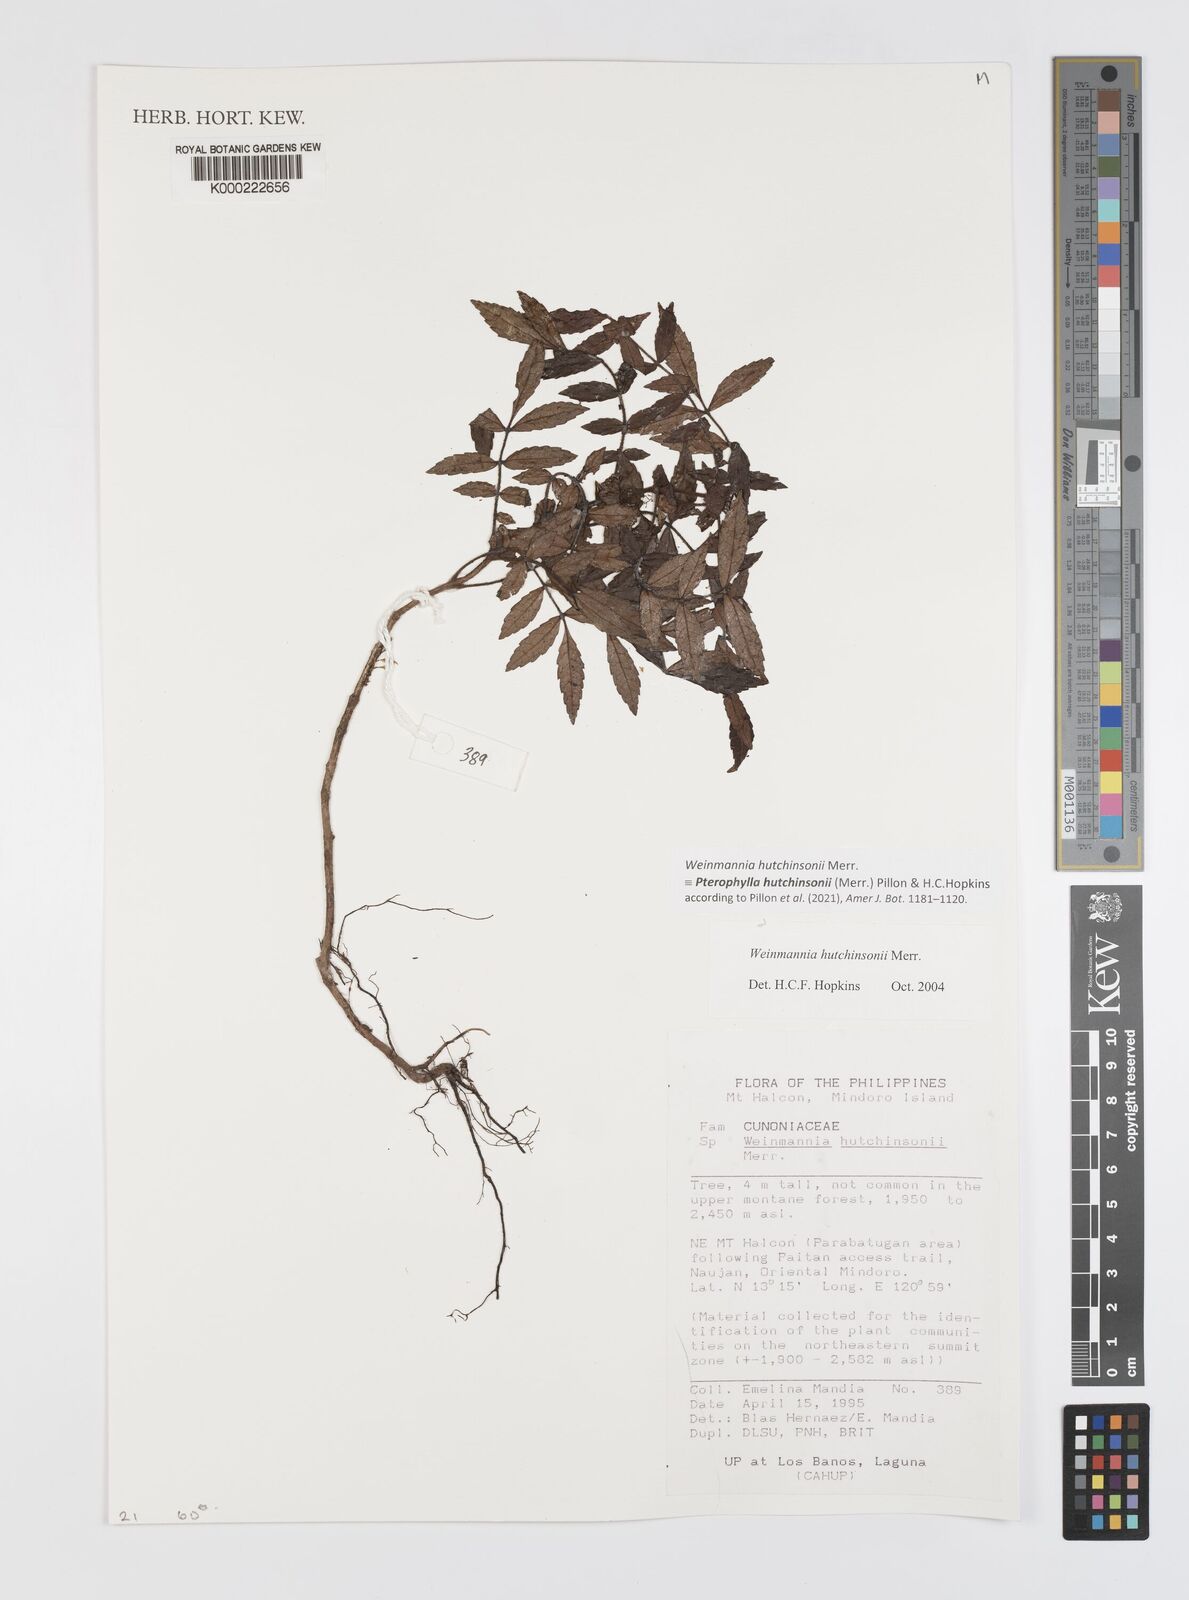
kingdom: Plantae
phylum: Tracheophyta
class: Magnoliopsida
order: Oxalidales
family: Cunoniaceae
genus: Pterophylla
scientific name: Pterophylla hutchinsonii
